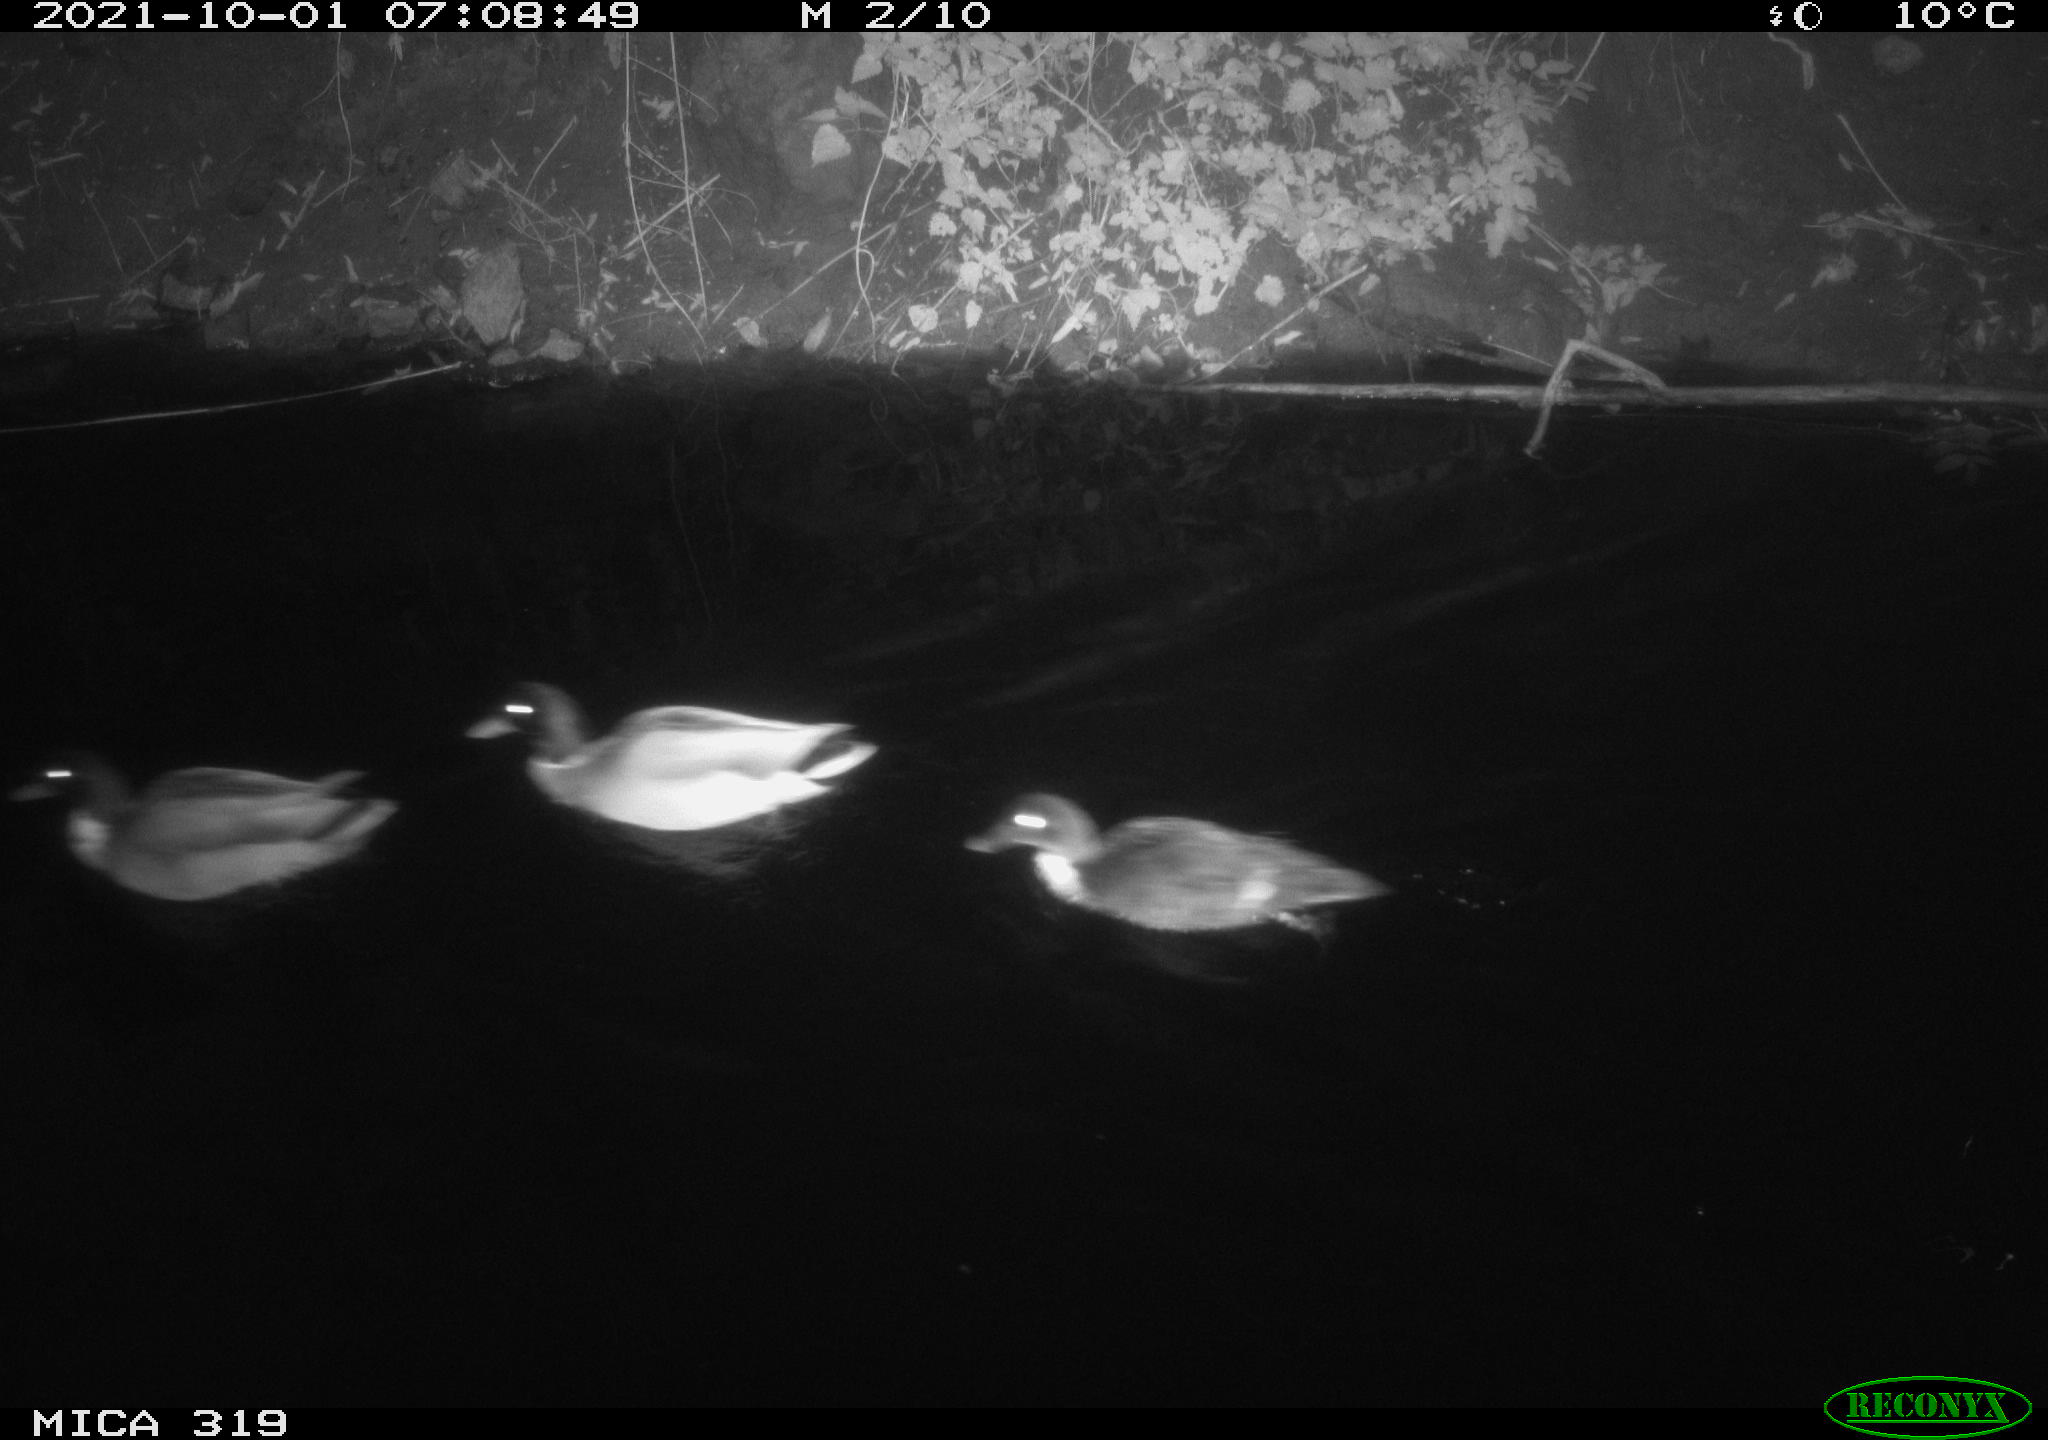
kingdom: Animalia
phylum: Chordata
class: Aves
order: Anseriformes
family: Anatidae
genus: Anas
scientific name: Anas platyrhynchos
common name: Mallard
